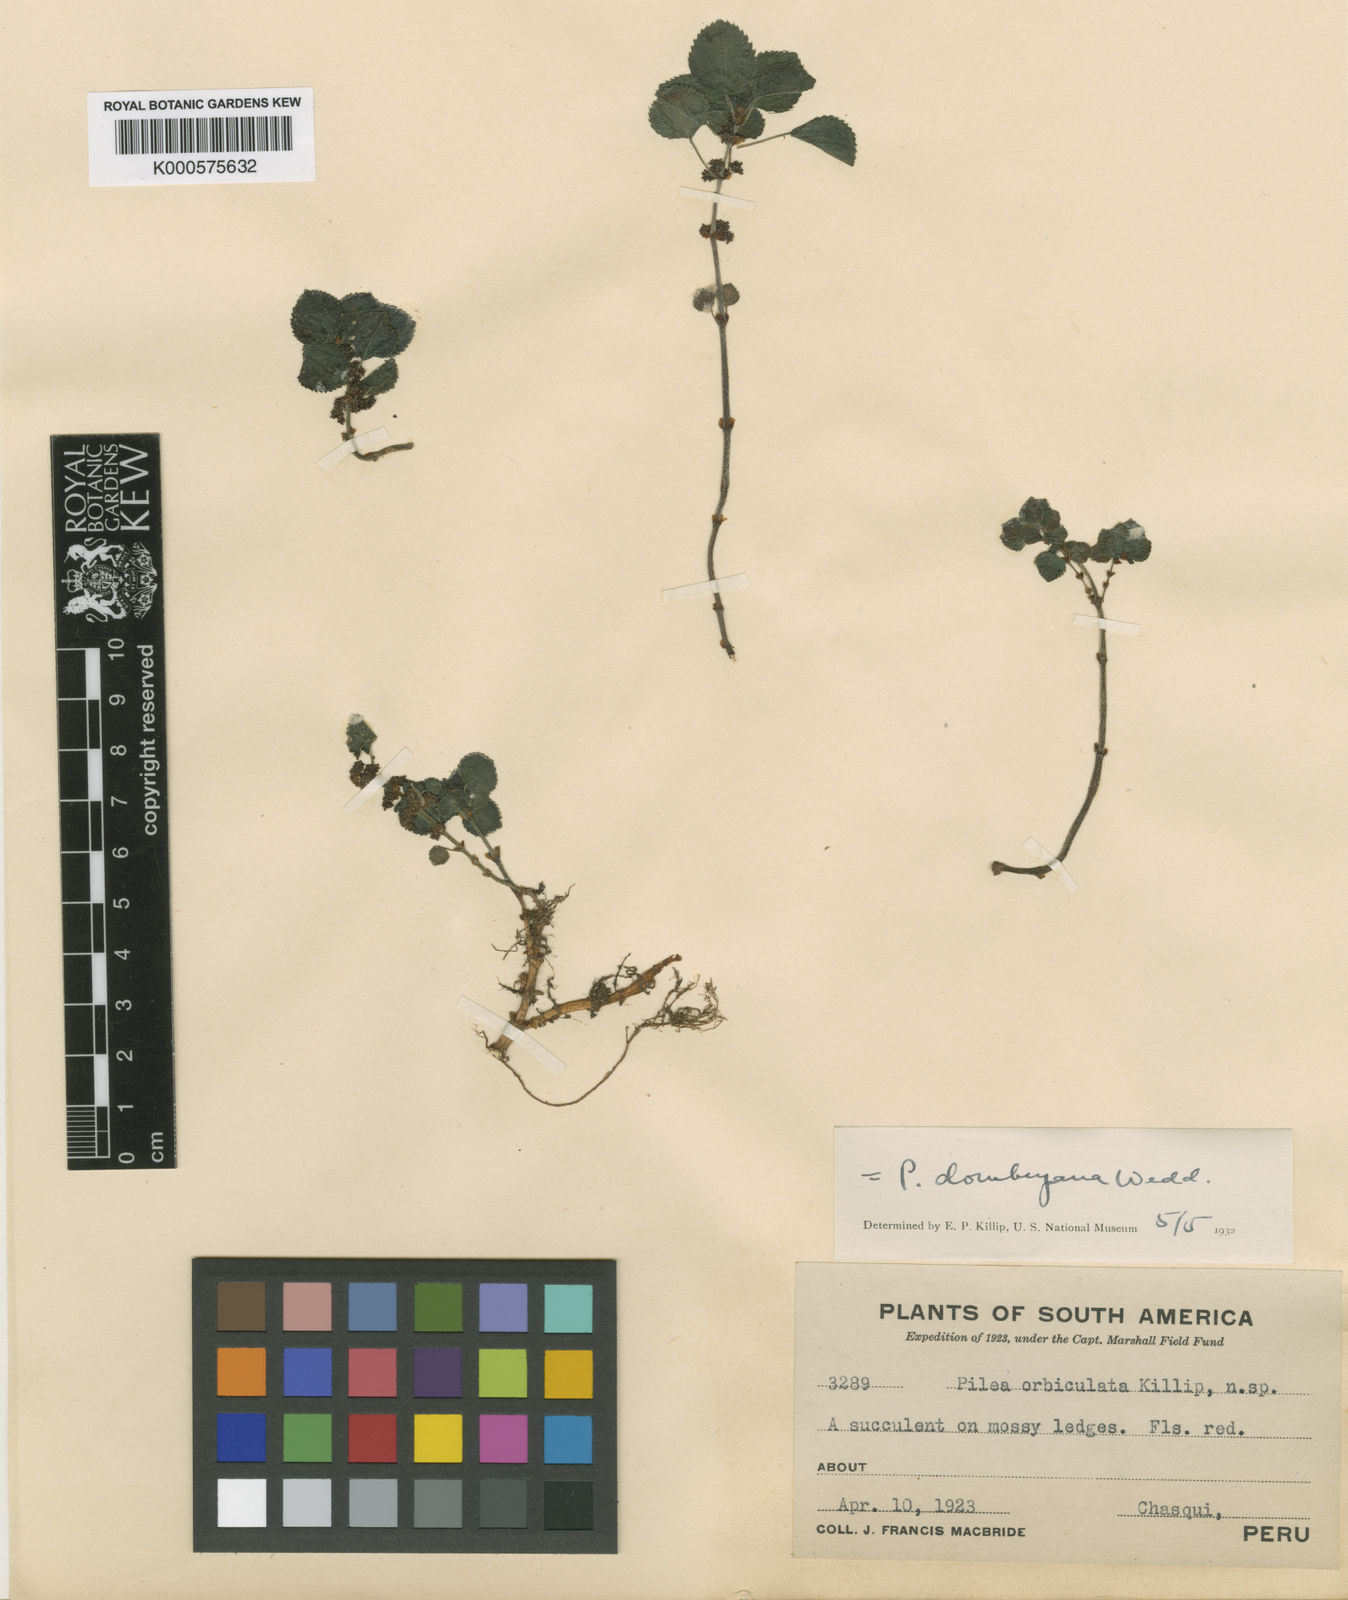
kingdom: Plantae
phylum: Tracheophyta
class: Magnoliopsida
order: Rosales
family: Urticaceae
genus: Pilea
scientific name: Pilea dombeyana
